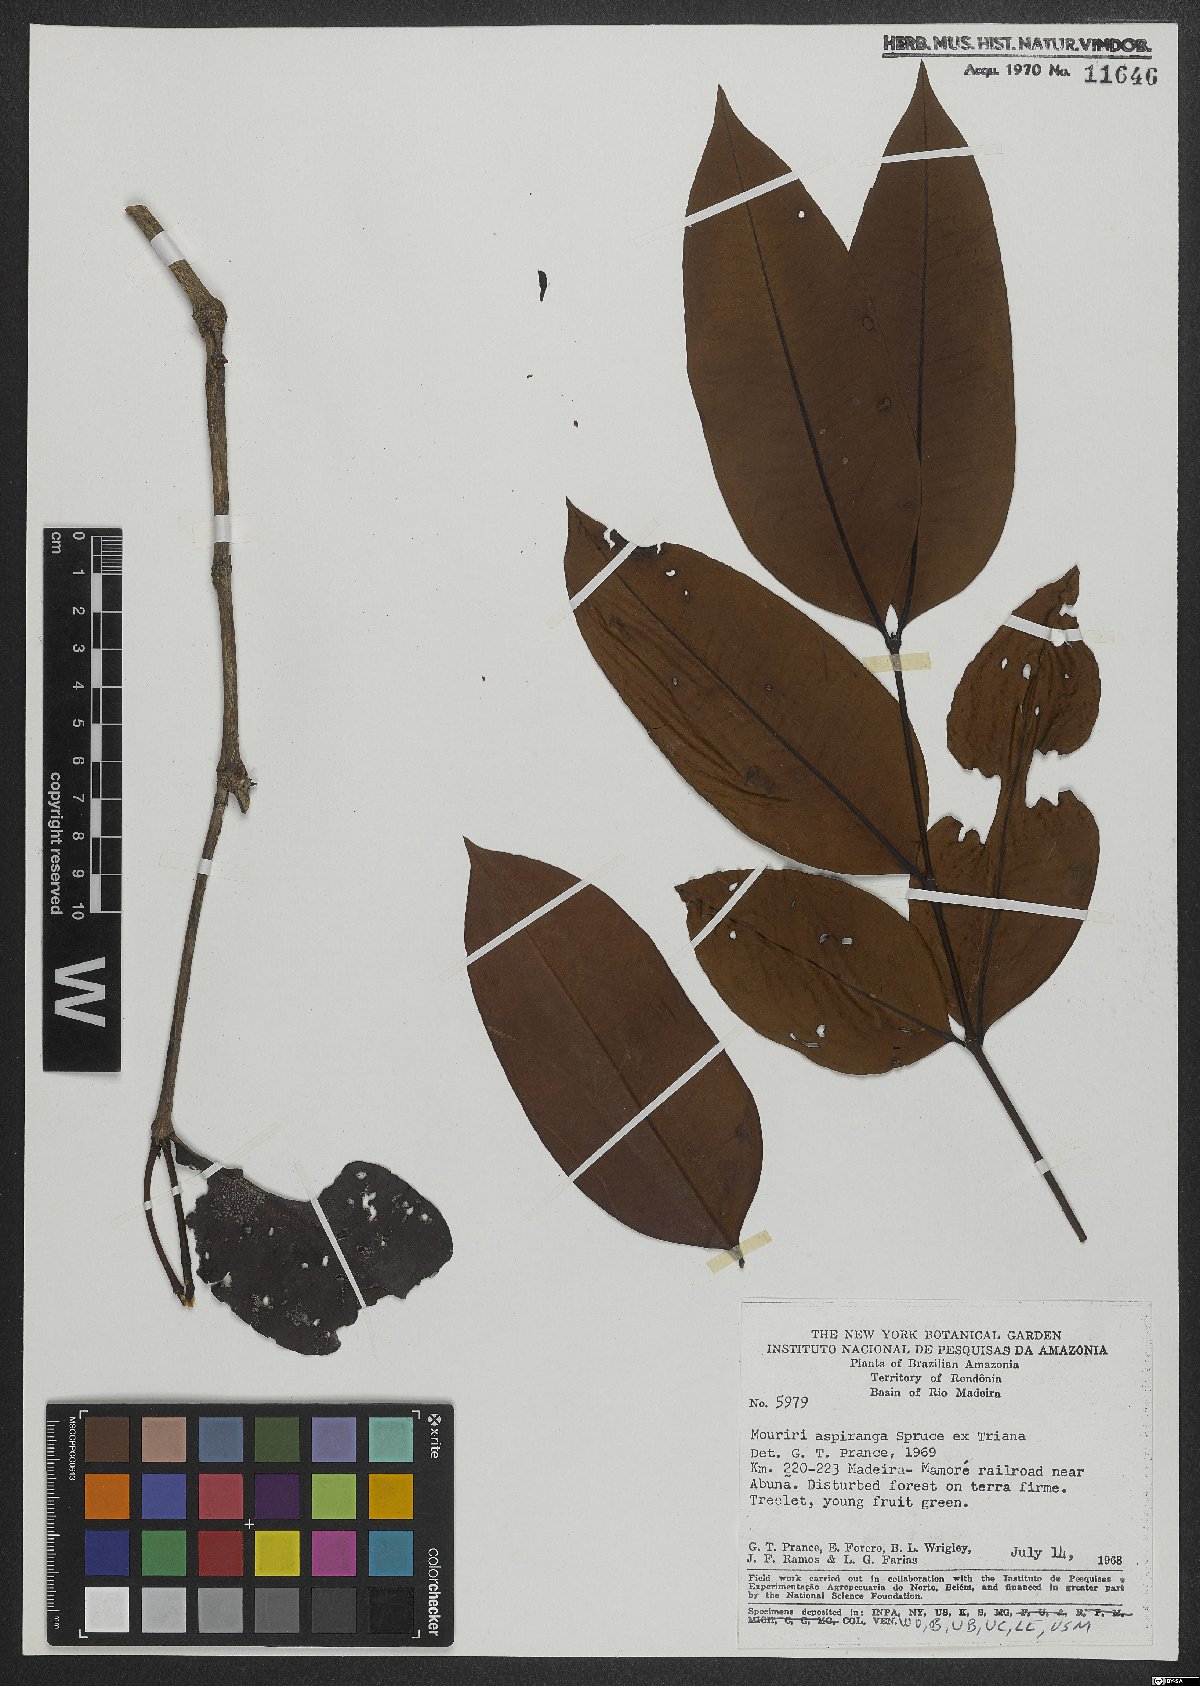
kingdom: Plantae
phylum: Tracheophyta
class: Magnoliopsida
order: Myrtales
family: Melastomataceae
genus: Mouriri
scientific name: Mouriri apiranga
